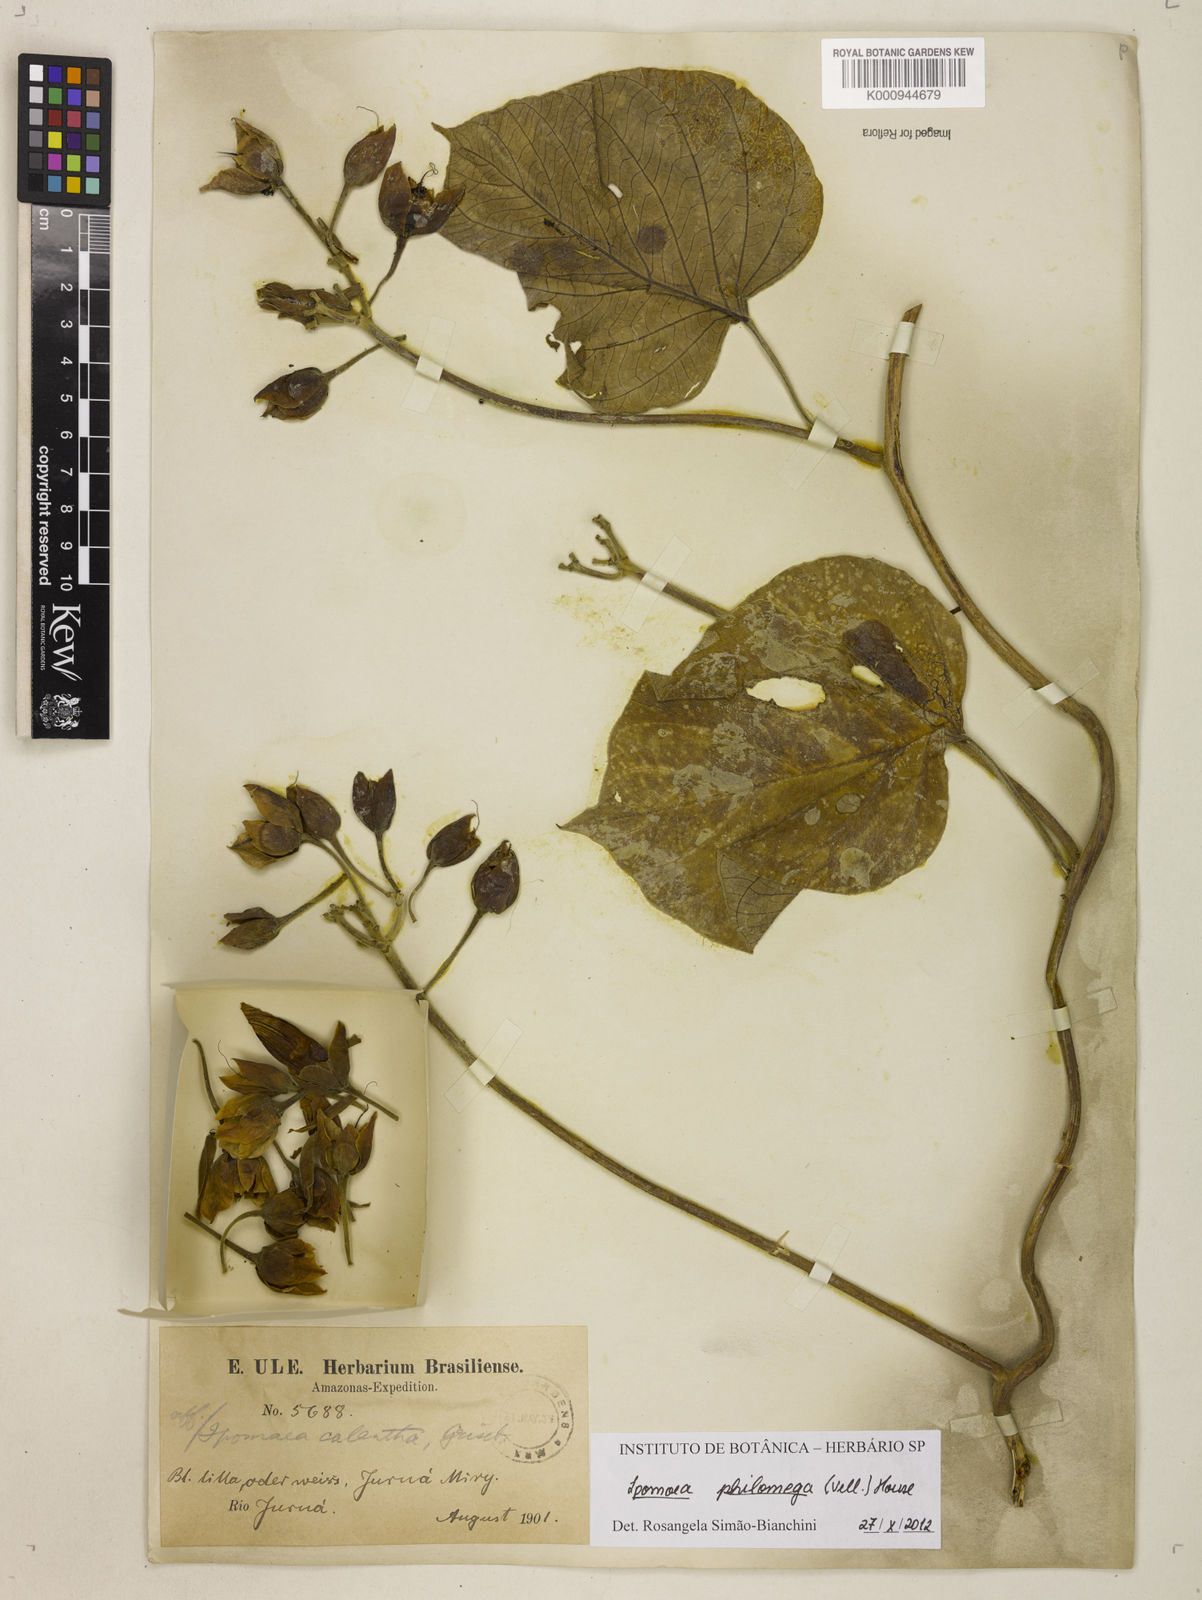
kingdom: Plantae
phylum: Tracheophyta
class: Magnoliopsida
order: Solanales
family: Convolvulaceae
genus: Ipomoea
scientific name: Ipomoea jalapa
